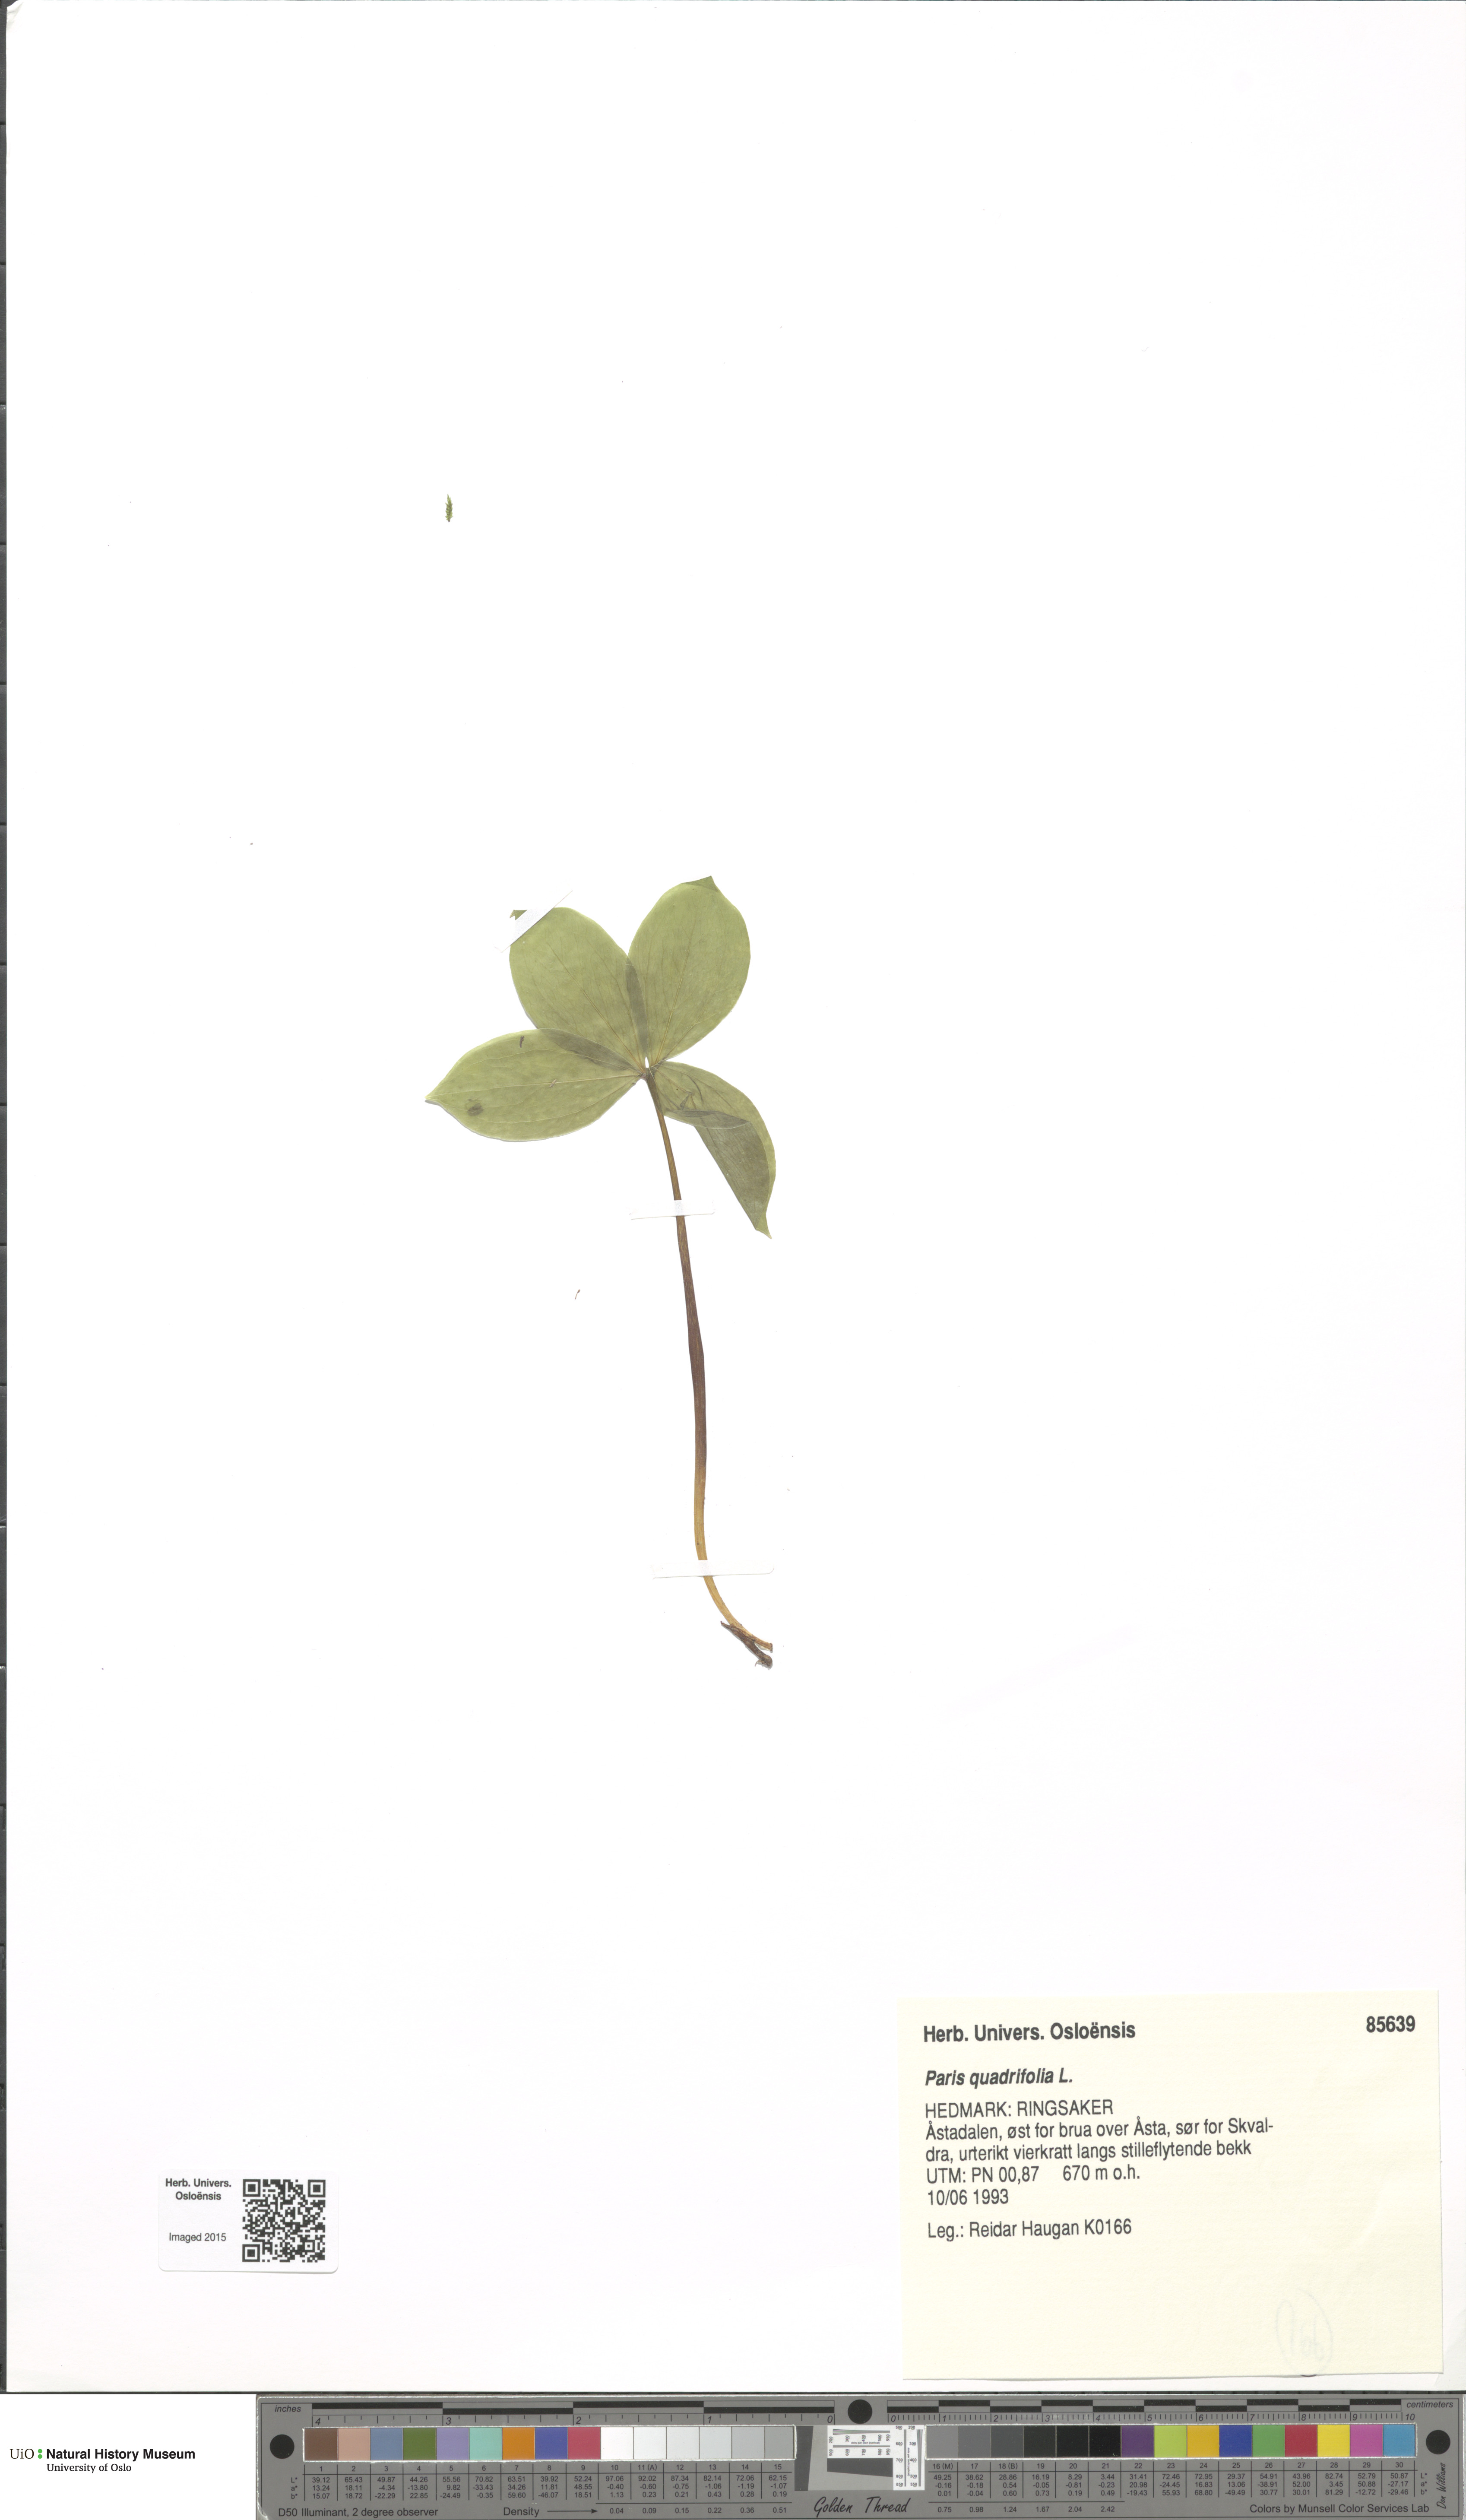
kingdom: Plantae
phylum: Tracheophyta
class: Liliopsida
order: Liliales
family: Melanthiaceae
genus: Paris
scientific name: Paris quadrifolia
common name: Herb-paris
